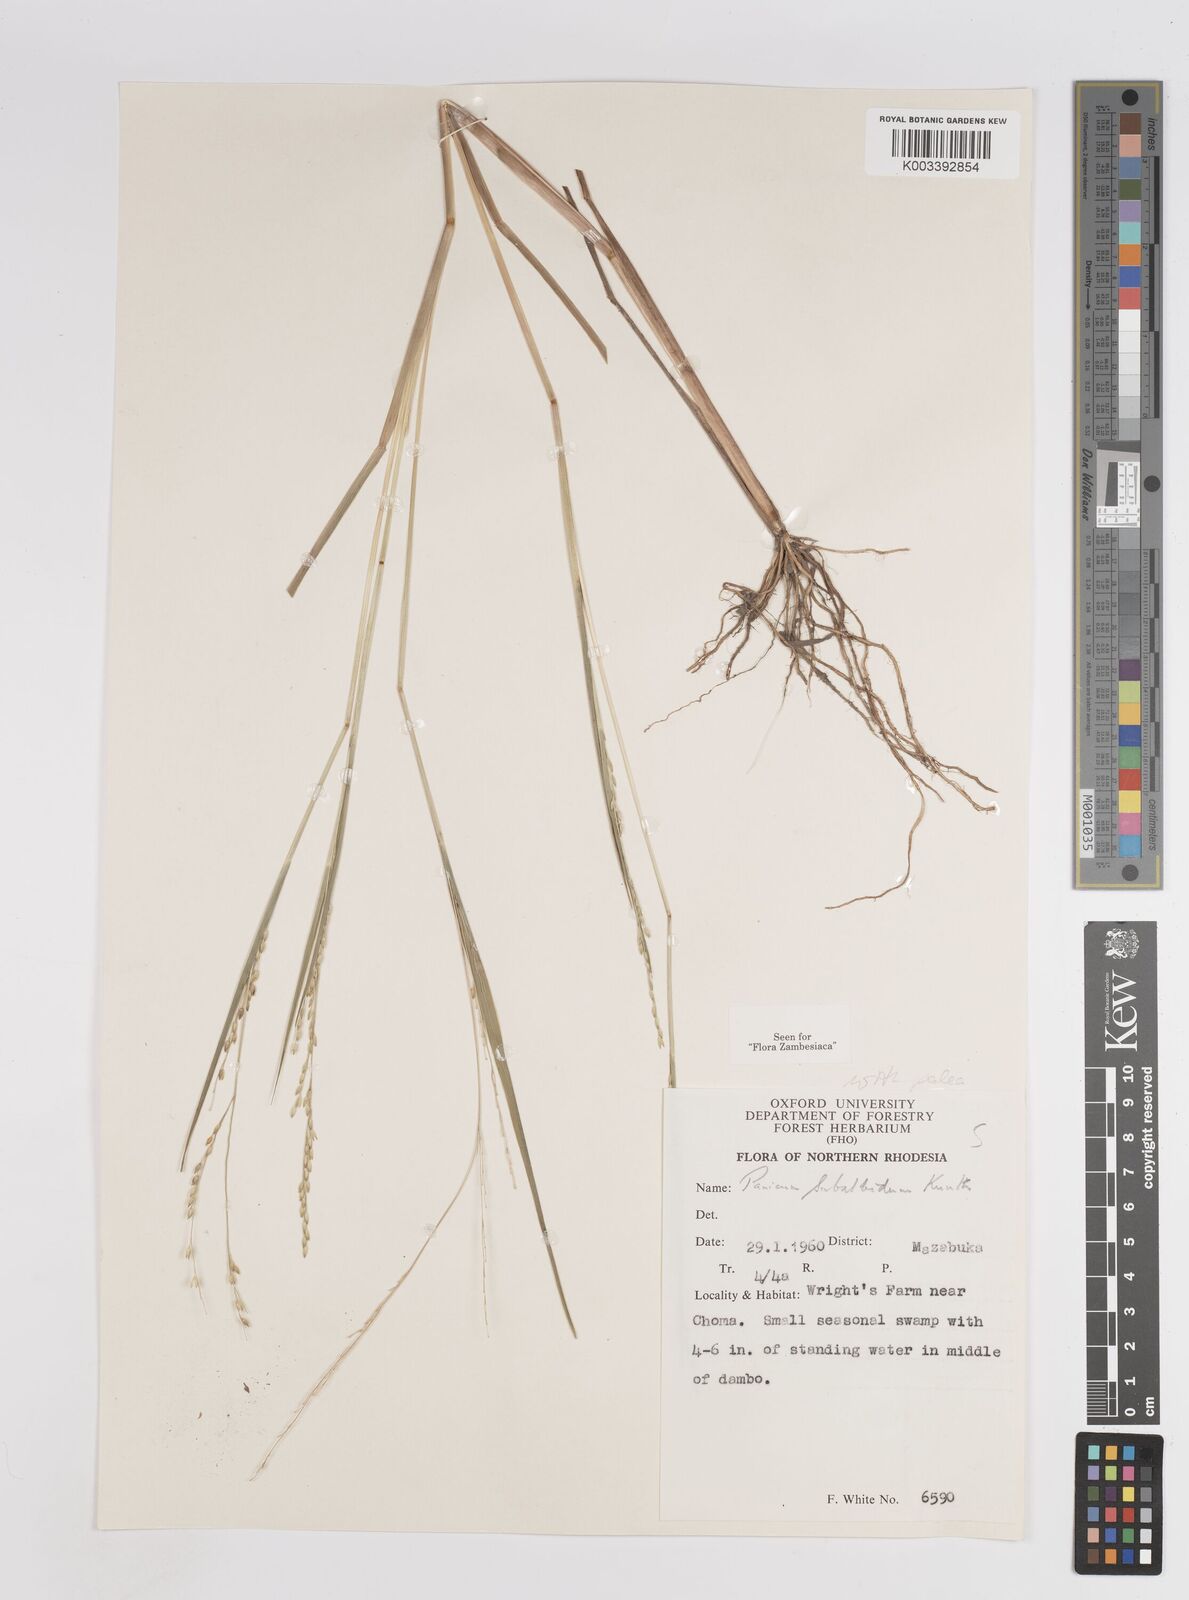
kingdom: Plantae
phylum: Tracheophyta
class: Liliopsida
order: Poales
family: Poaceae
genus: Panicum
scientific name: Panicum subalbidum
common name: Elbow buffalo grass
